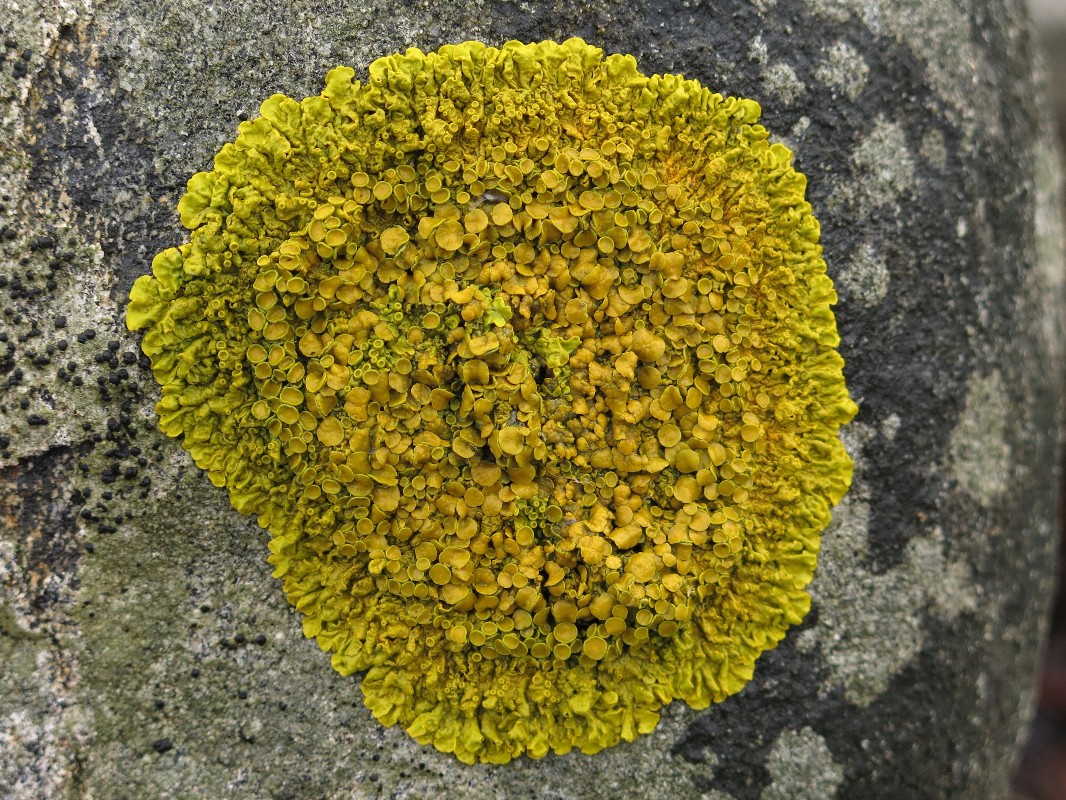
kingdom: Fungi
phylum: Ascomycota
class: Lecanoromycetes
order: Teloschistales
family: Teloschistaceae
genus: Xanthoria
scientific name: Xanthoria parietina
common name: almindelig væggelav
